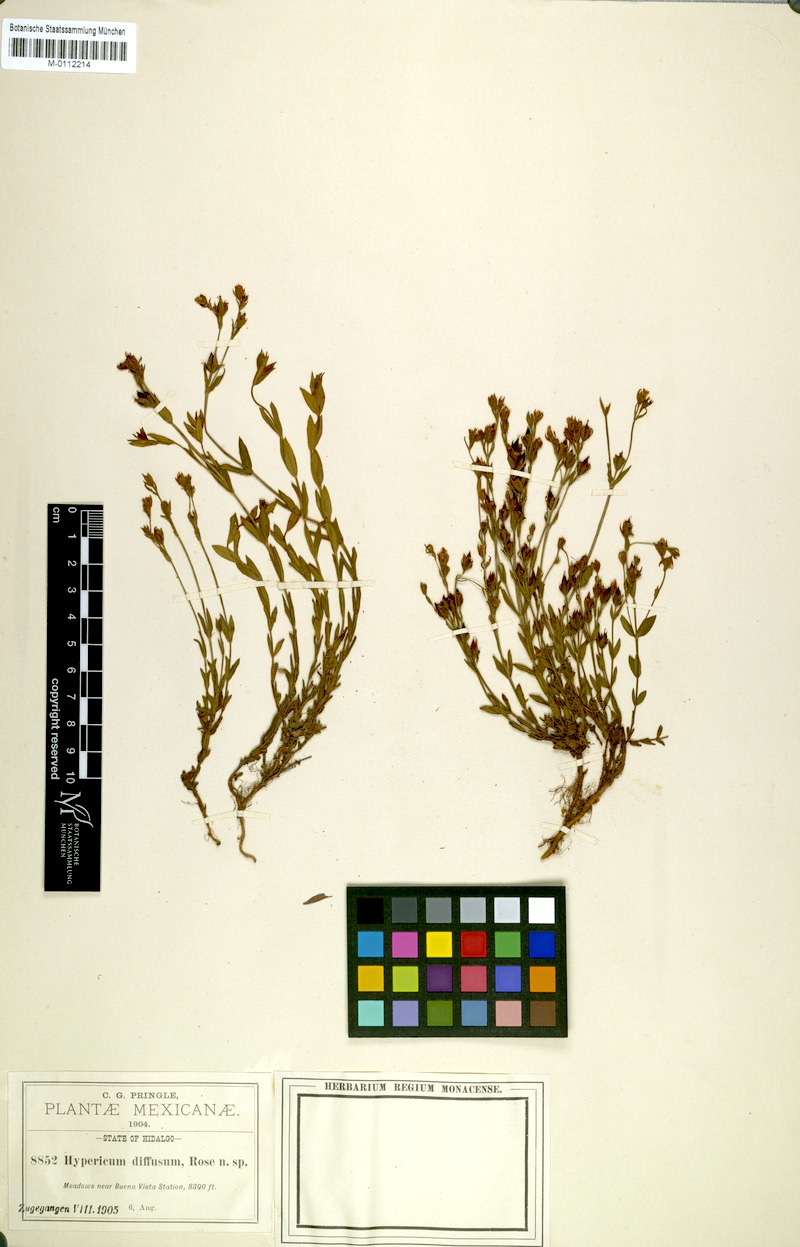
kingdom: Plantae
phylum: Tracheophyta
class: Magnoliopsida
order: Malpighiales
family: Hypericaceae
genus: Hypericum
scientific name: Hypericum pumilum
